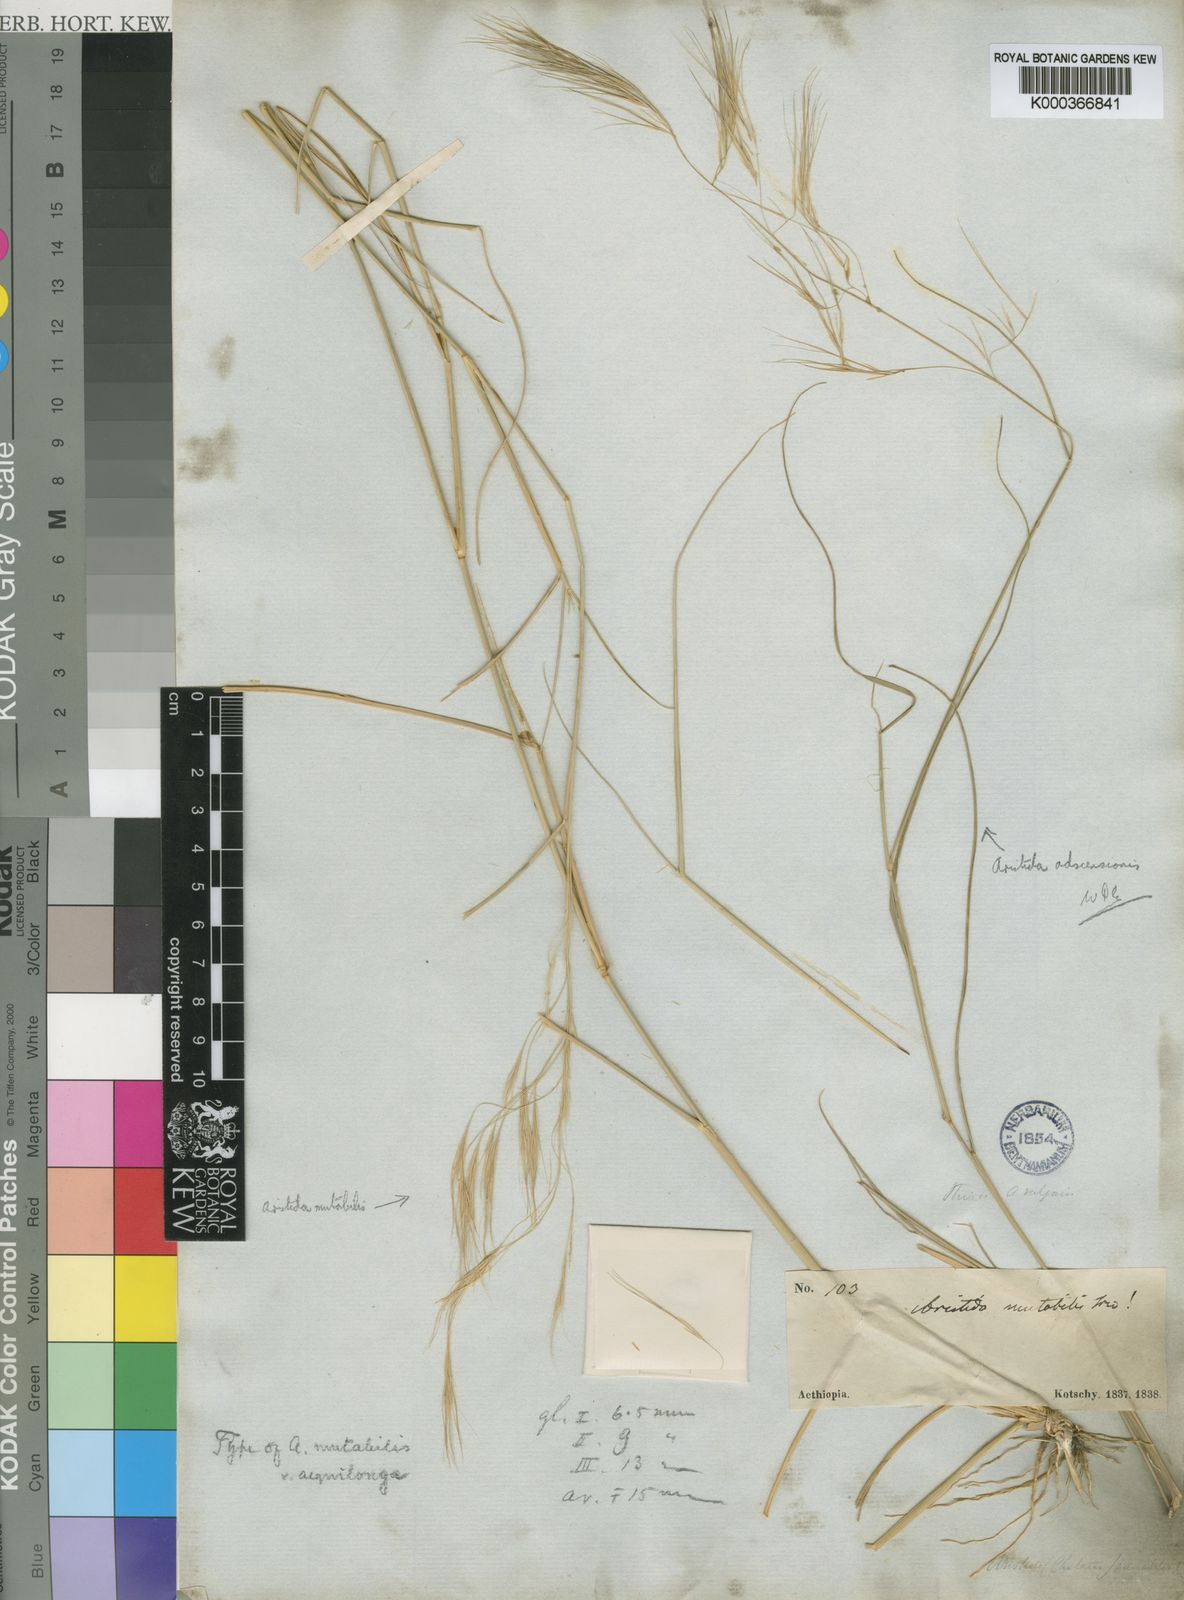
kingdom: Plantae
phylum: Tracheophyta
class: Liliopsida
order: Poales
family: Poaceae
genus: Aristida
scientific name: Aristida mutabilis
